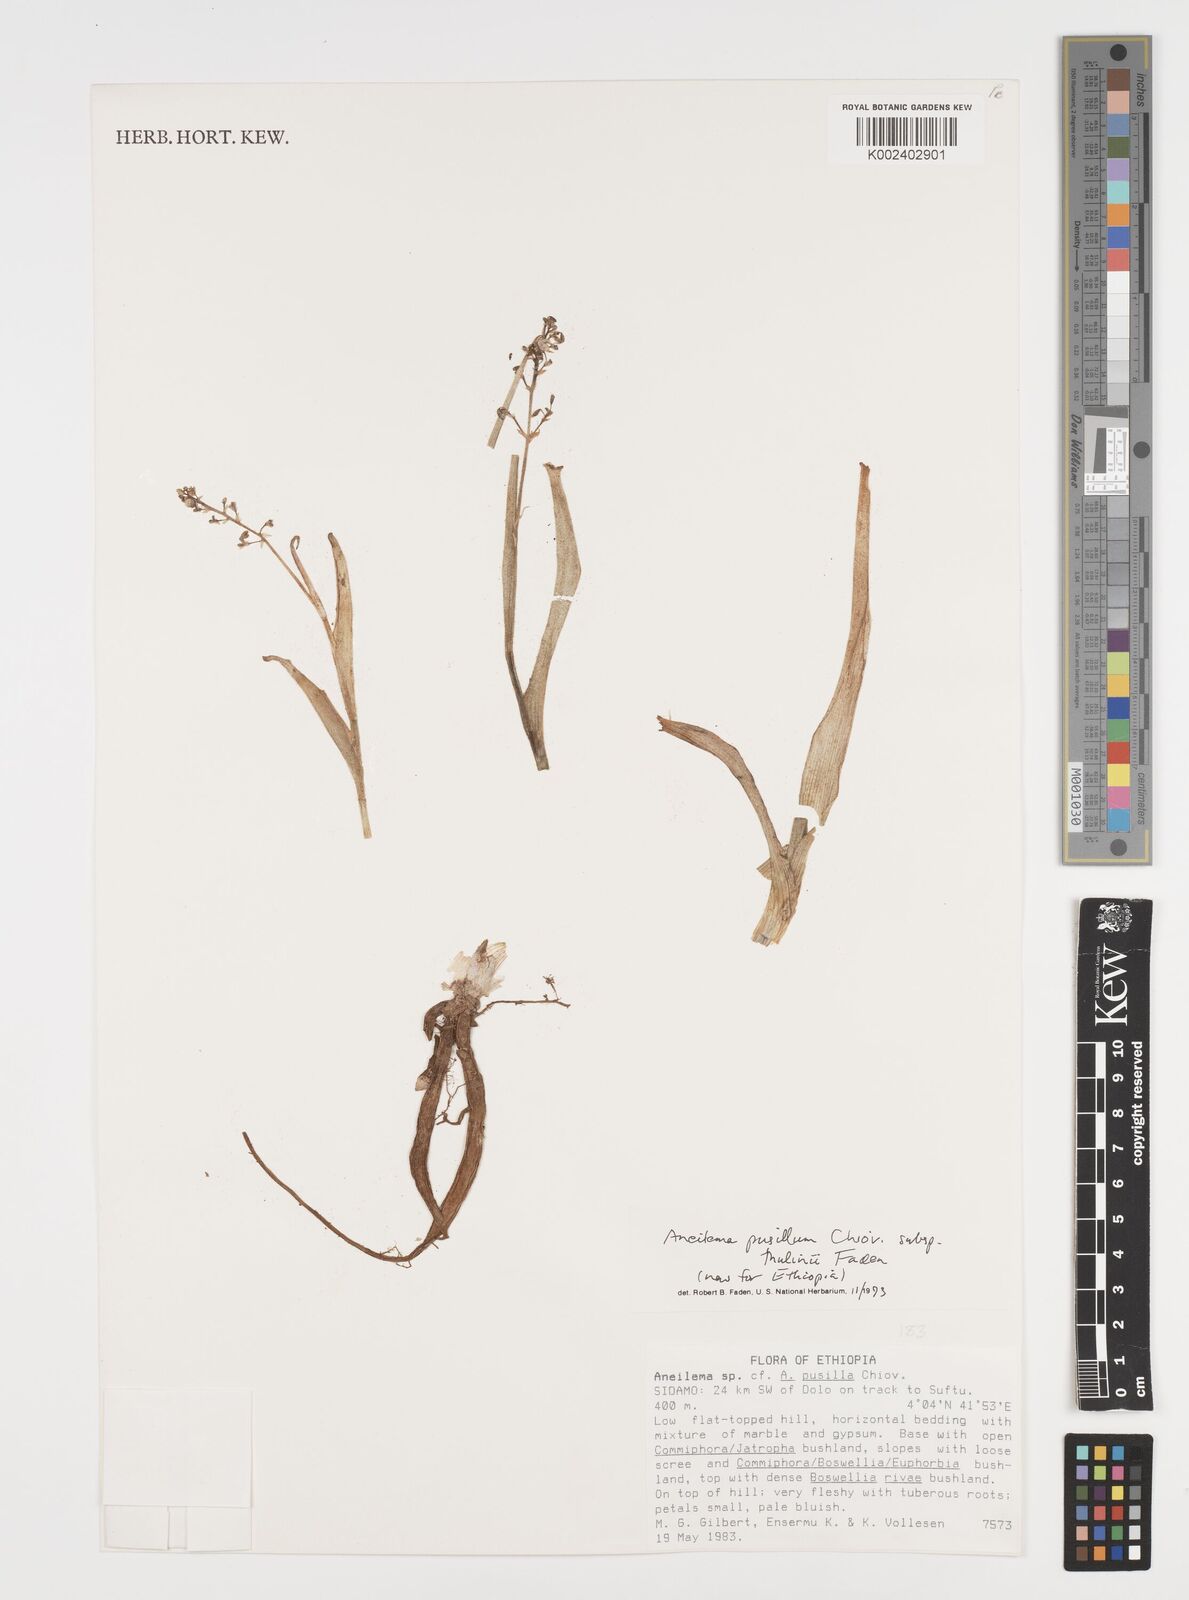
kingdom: Plantae
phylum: Tracheophyta
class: Liliopsida
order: Commelinales
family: Commelinaceae
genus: Aneilema
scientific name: Aneilema pusillum
